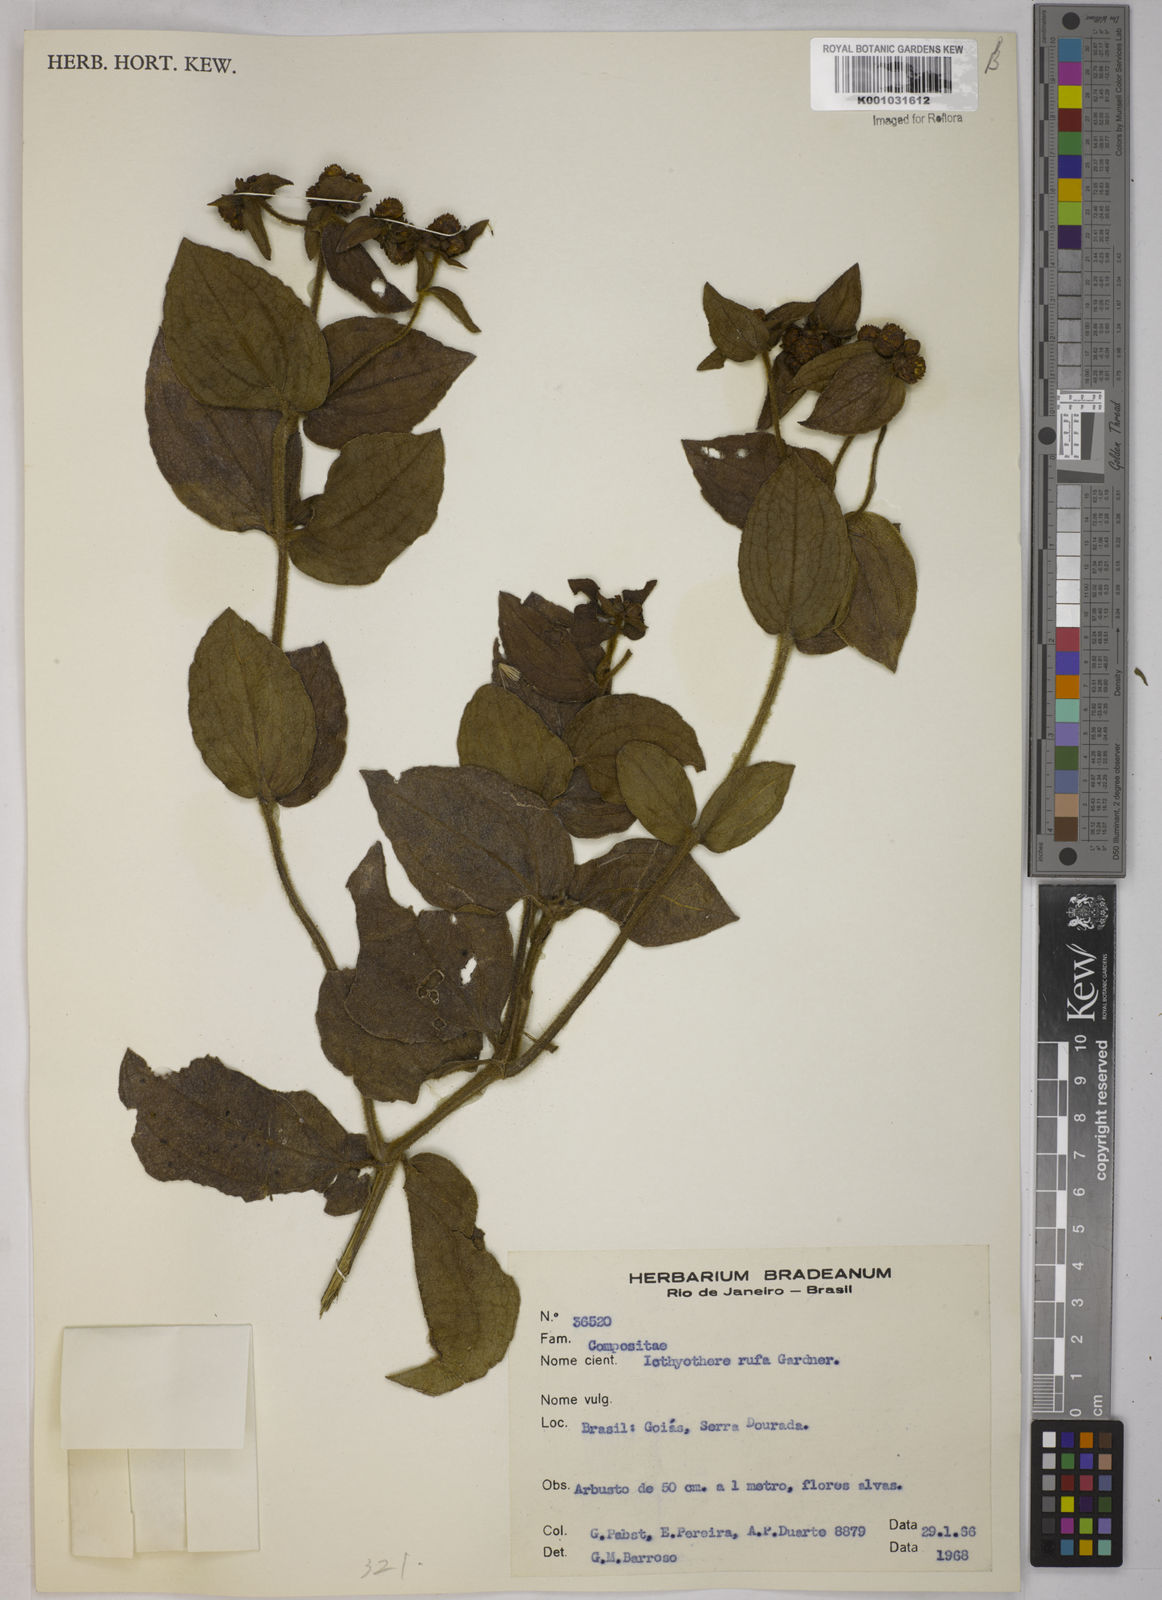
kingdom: Plantae
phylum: Tracheophyta
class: Magnoliopsida
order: Asterales
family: Asteraceae
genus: Ichthyothere
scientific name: Ichthyothere rufa
